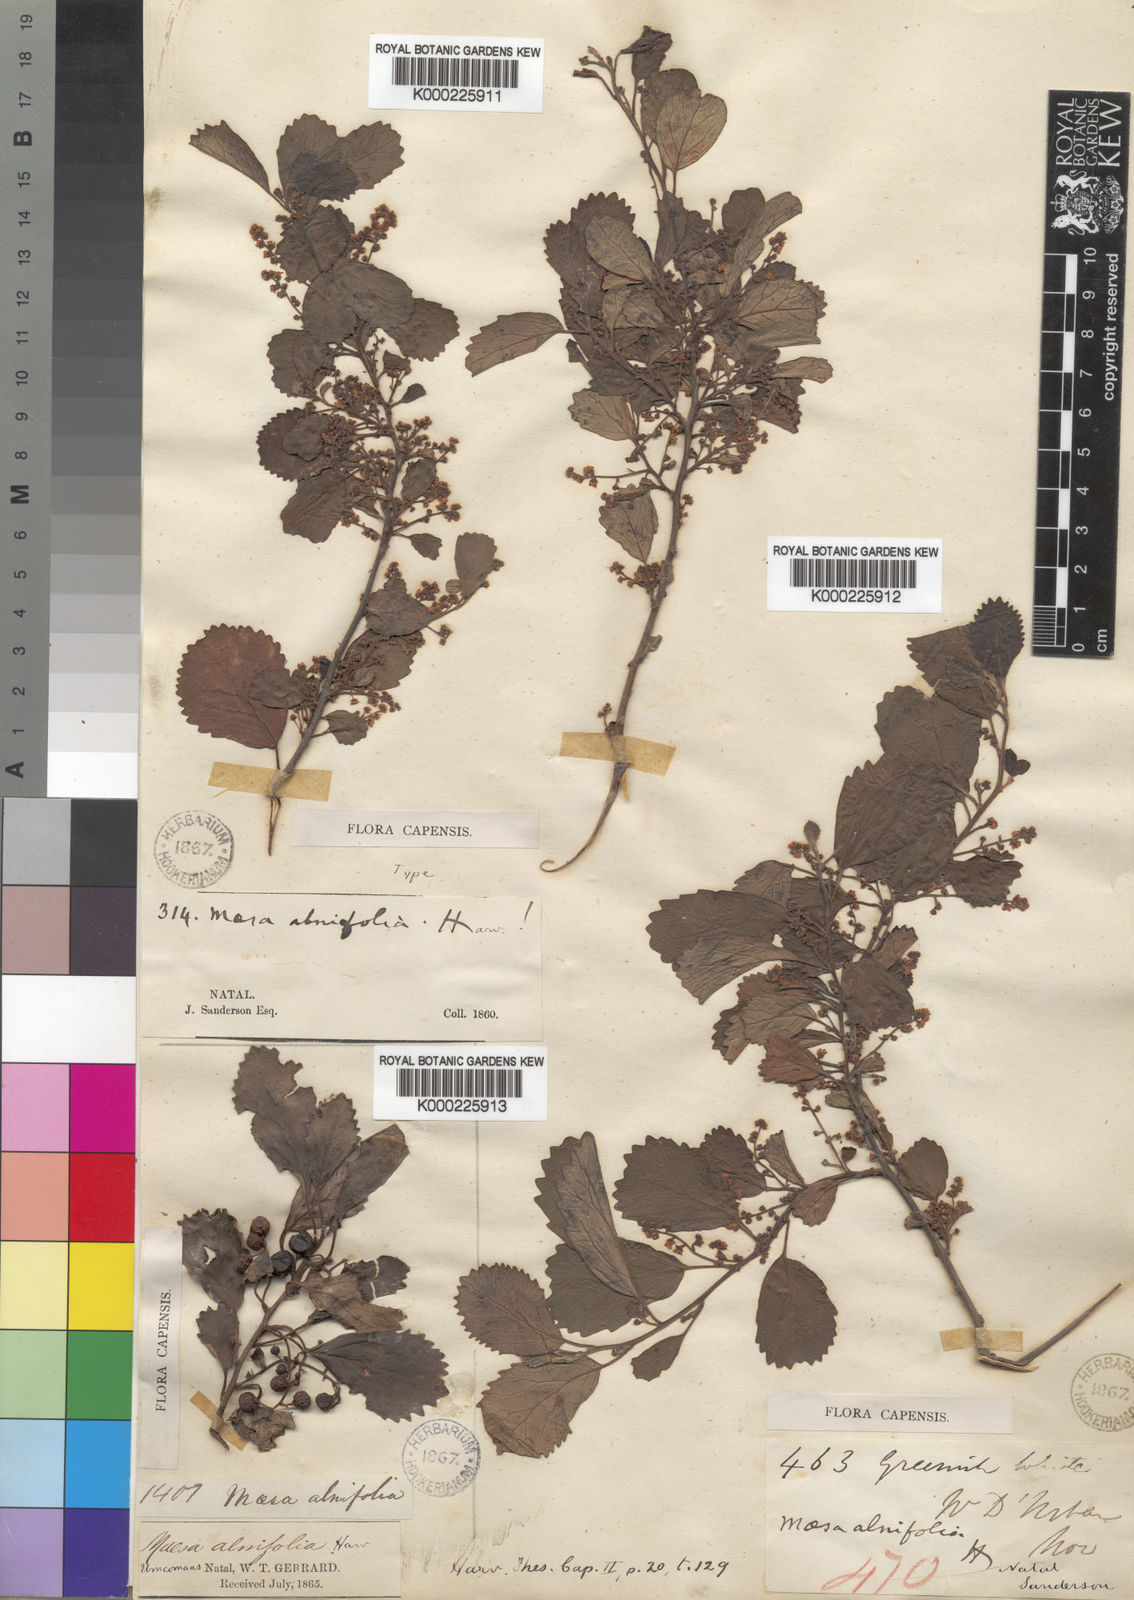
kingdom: Plantae
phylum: Tracheophyta
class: Magnoliopsida
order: Ericales
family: Primulaceae
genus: Maesa
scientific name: Maesa alnifolia
